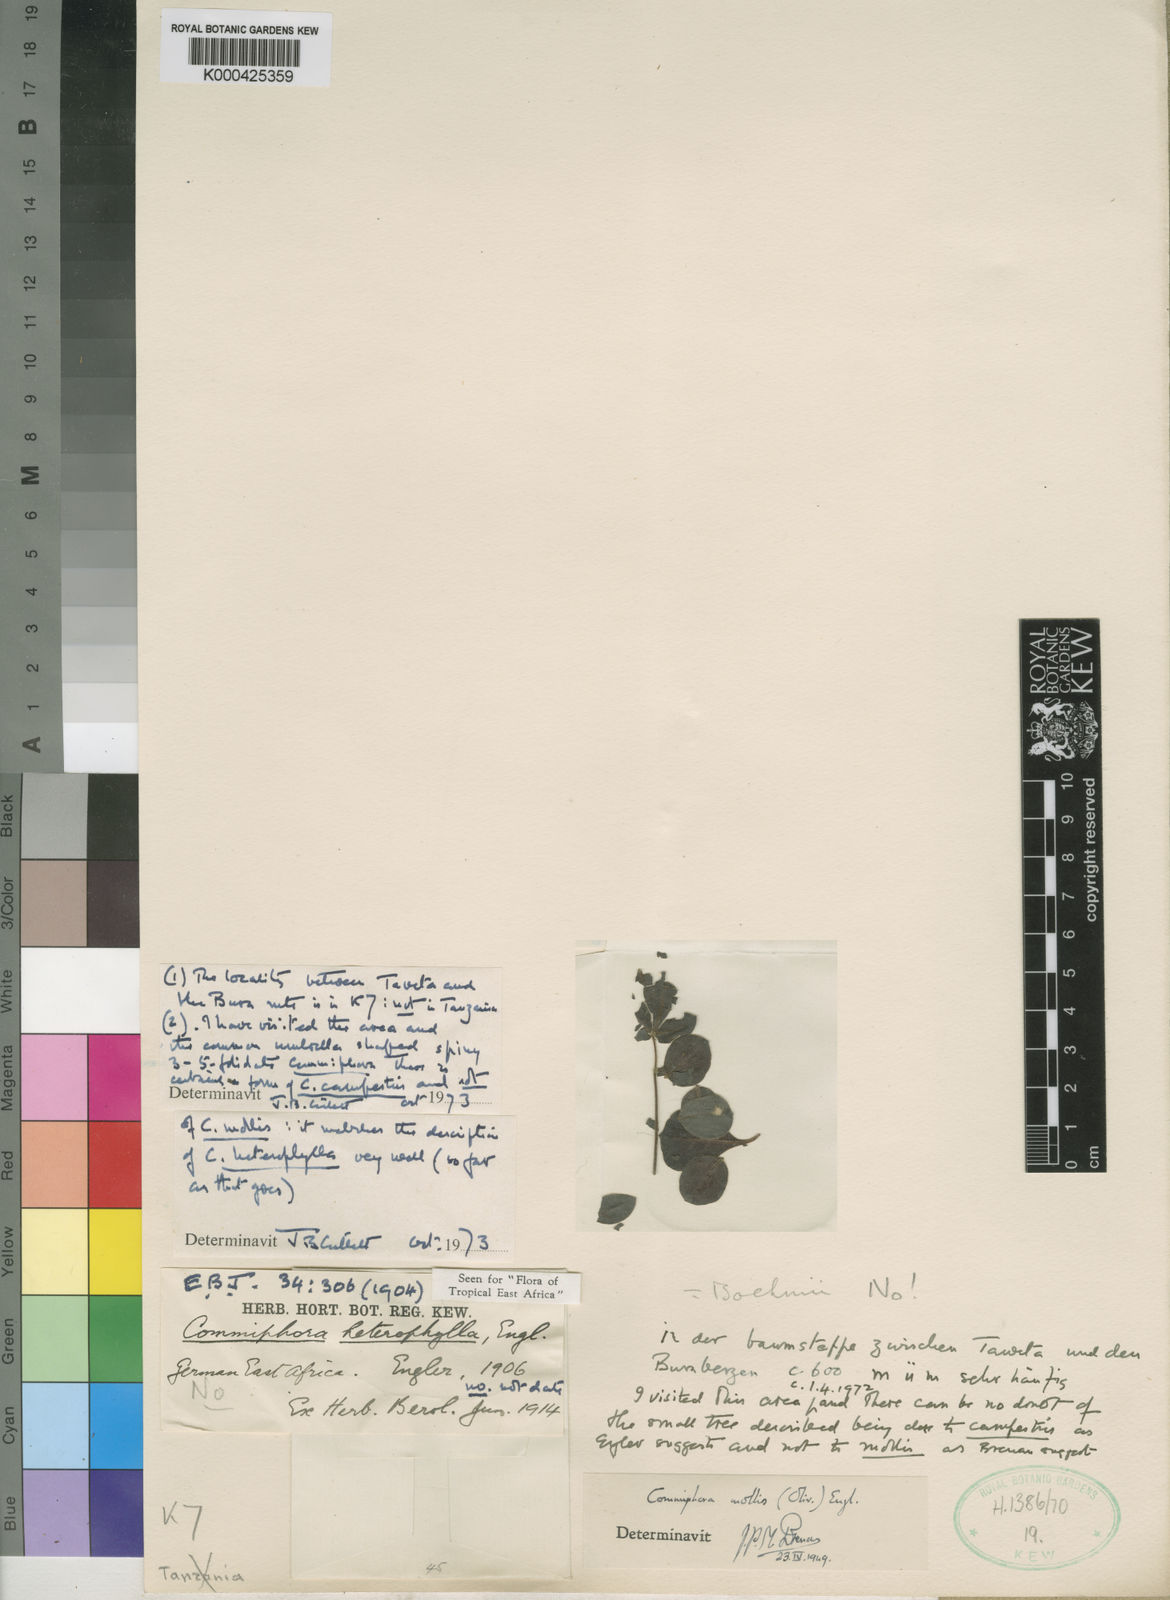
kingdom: Plantae
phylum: Tracheophyta
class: Magnoliopsida
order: Sapindales
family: Burseraceae
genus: Commiphora
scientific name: Commiphora campestris
